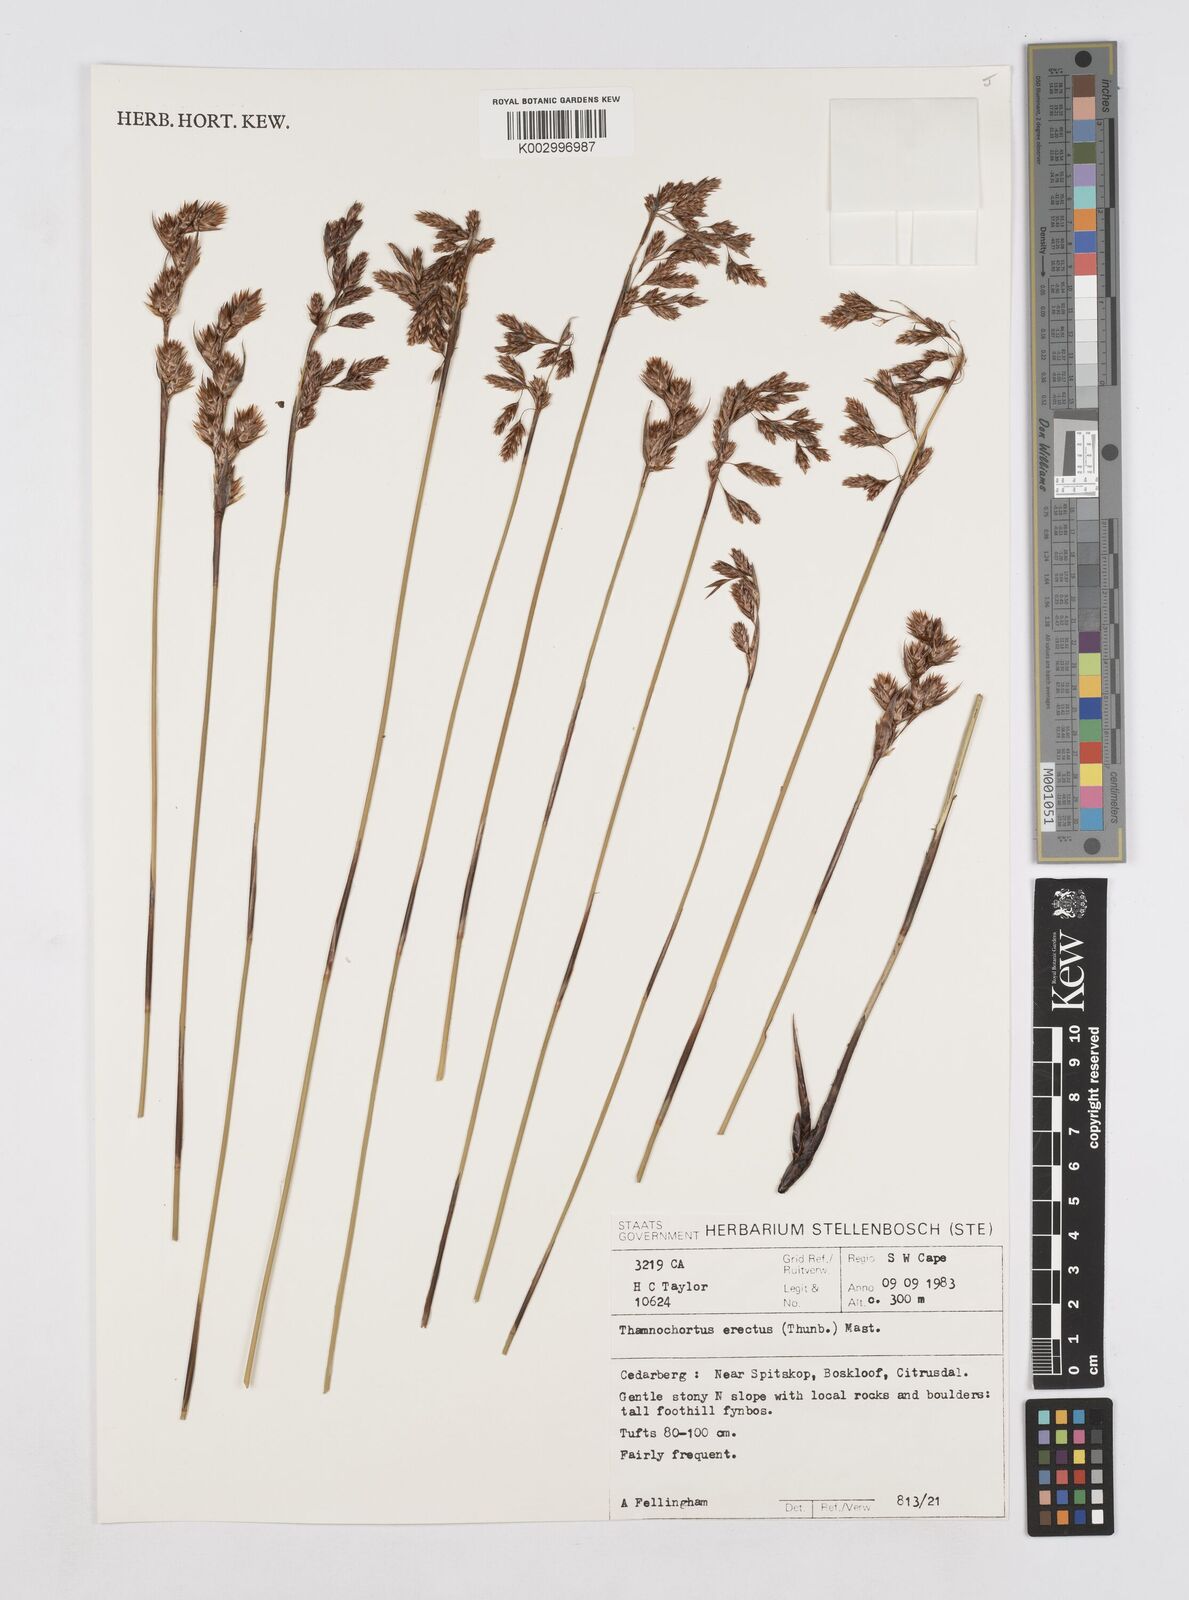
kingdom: Plantae
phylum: Tracheophyta
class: Liliopsida
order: Poales
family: Restionaceae
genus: Thamnochortus
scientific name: Thamnochortus erectus
